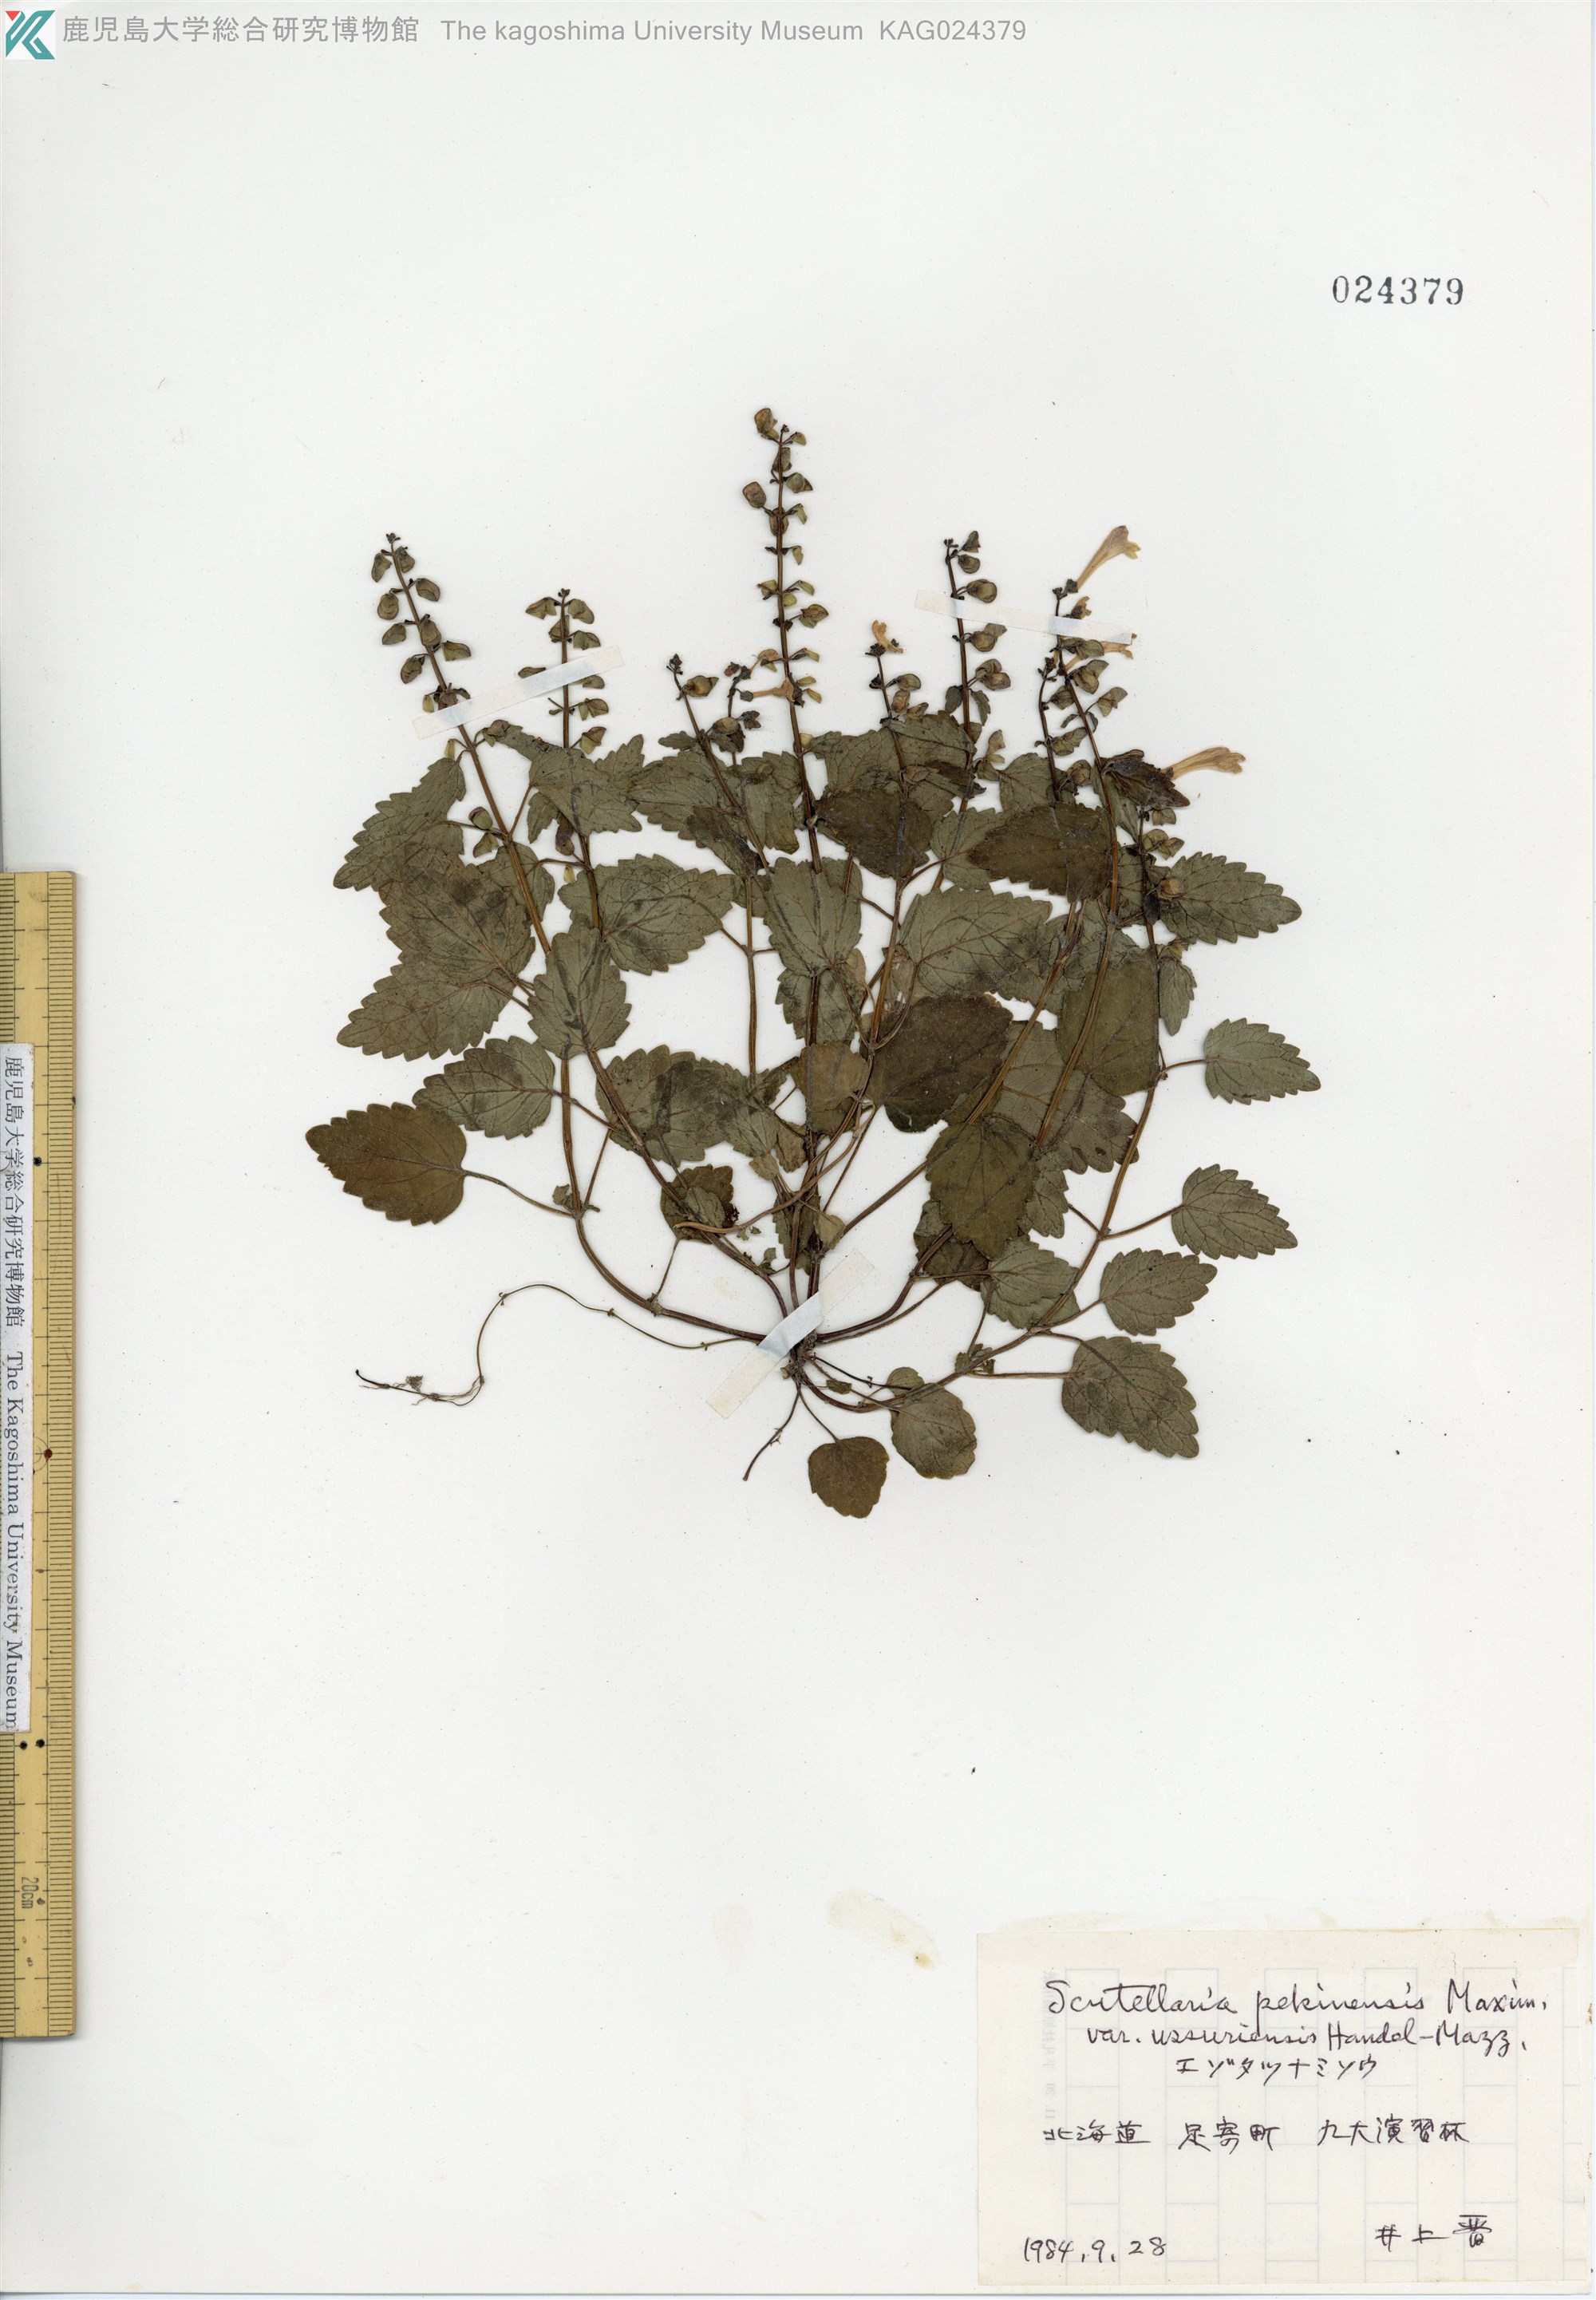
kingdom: Plantae
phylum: Tracheophyta
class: Magnoliopsida
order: Lamiales
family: Lamiaceae
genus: Scutellaria
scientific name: Scutellaria pekinensis
